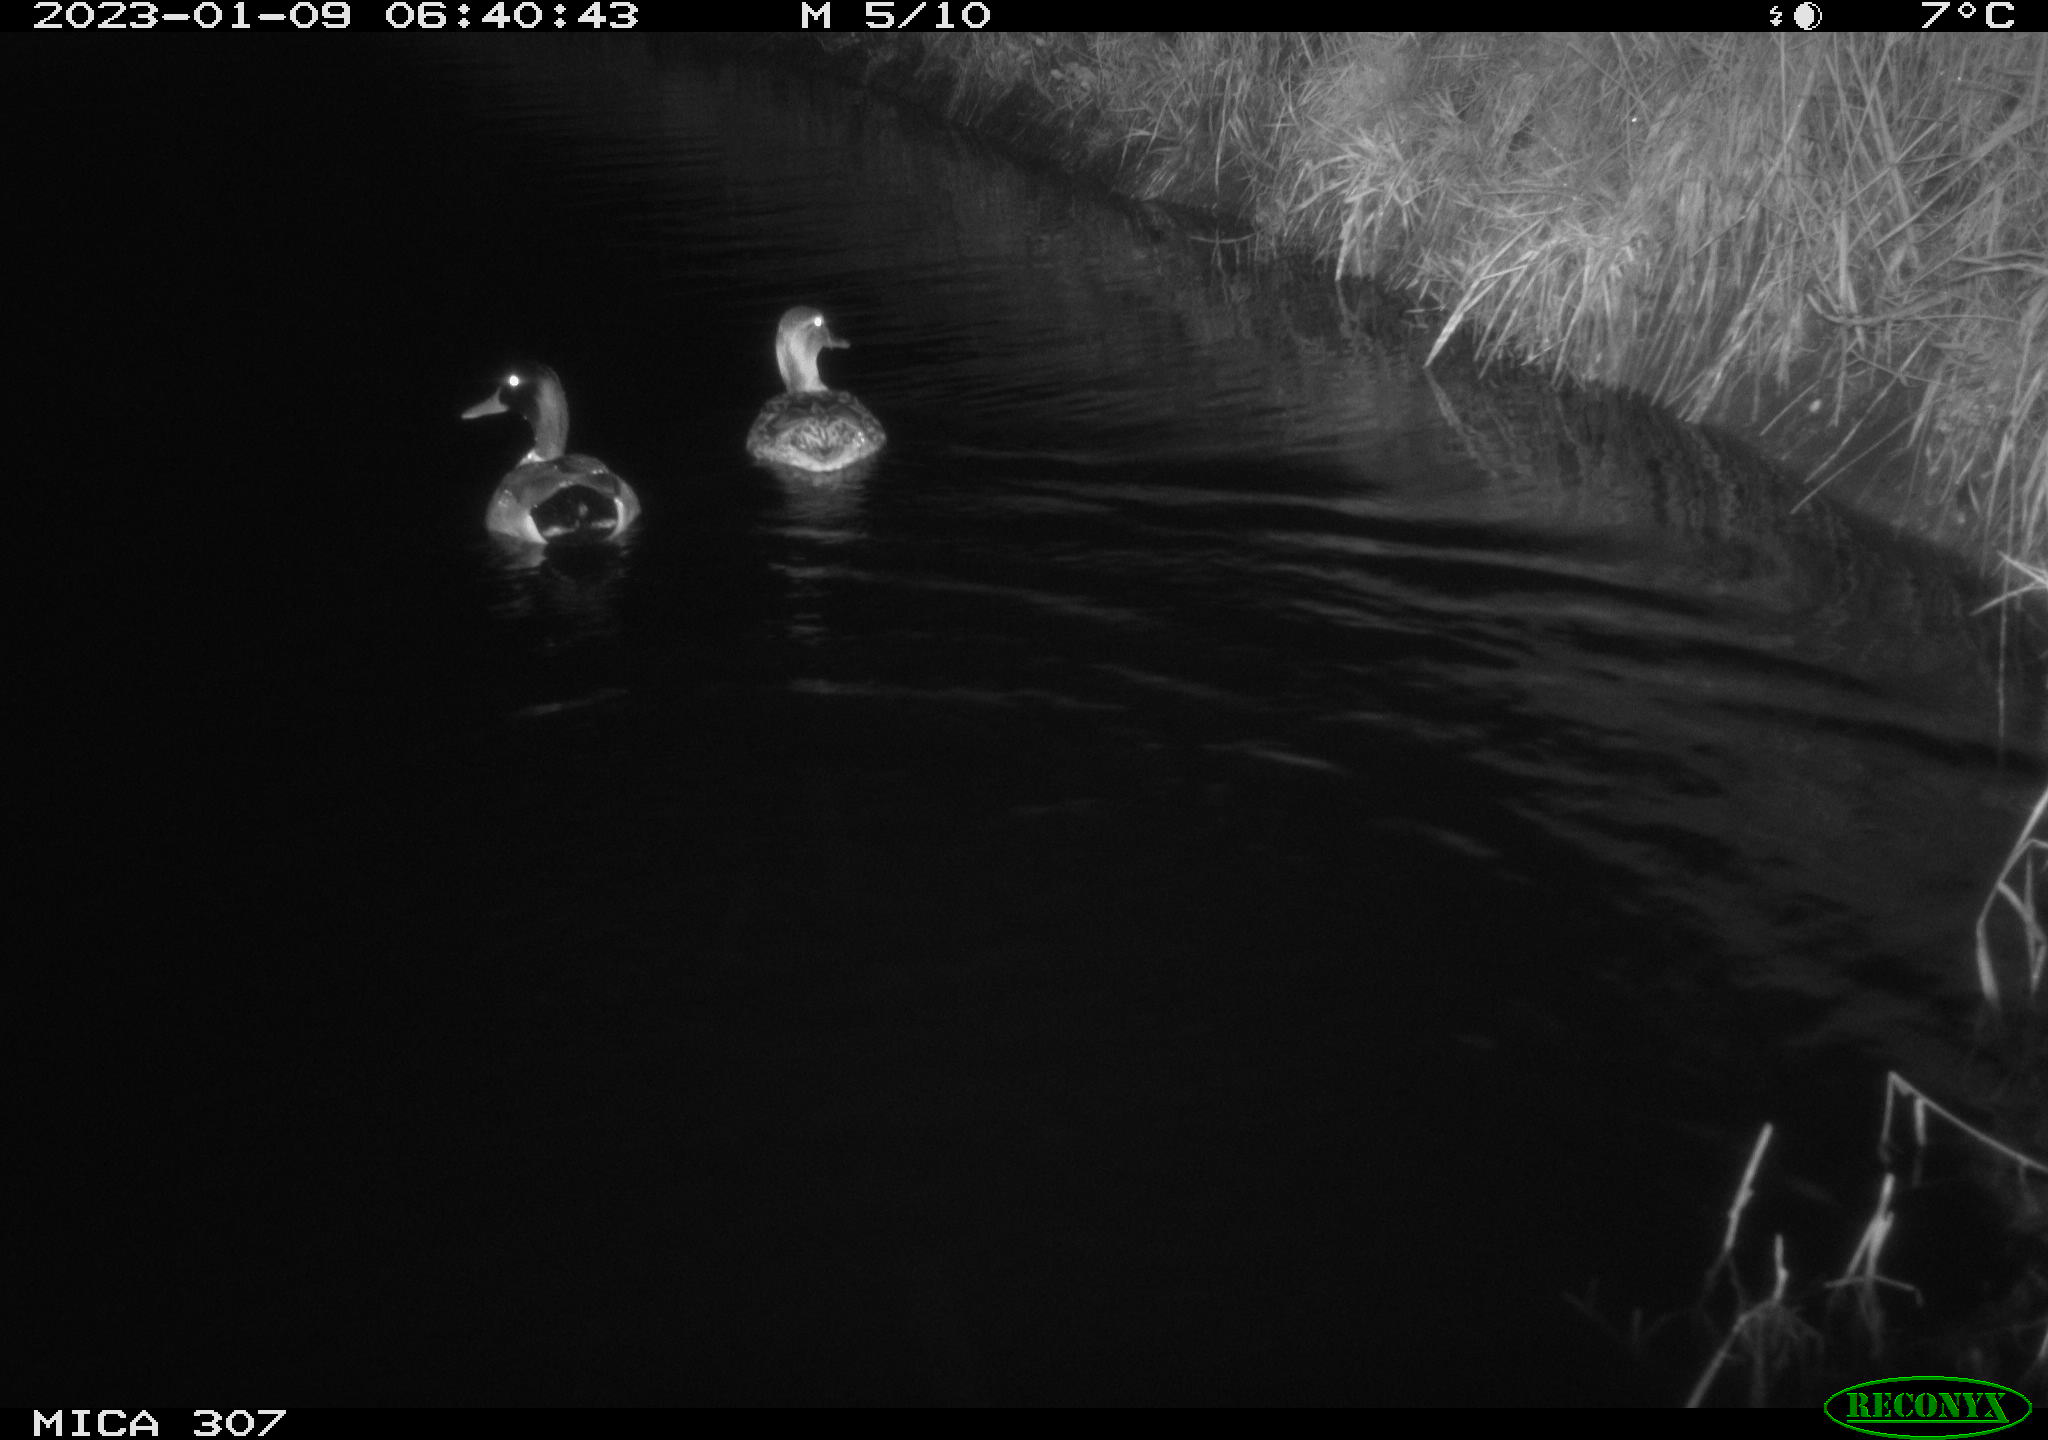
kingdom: Animalia
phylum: Chordata
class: Aves
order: Anseriformes
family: Anatidae
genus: Anas
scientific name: Anas
